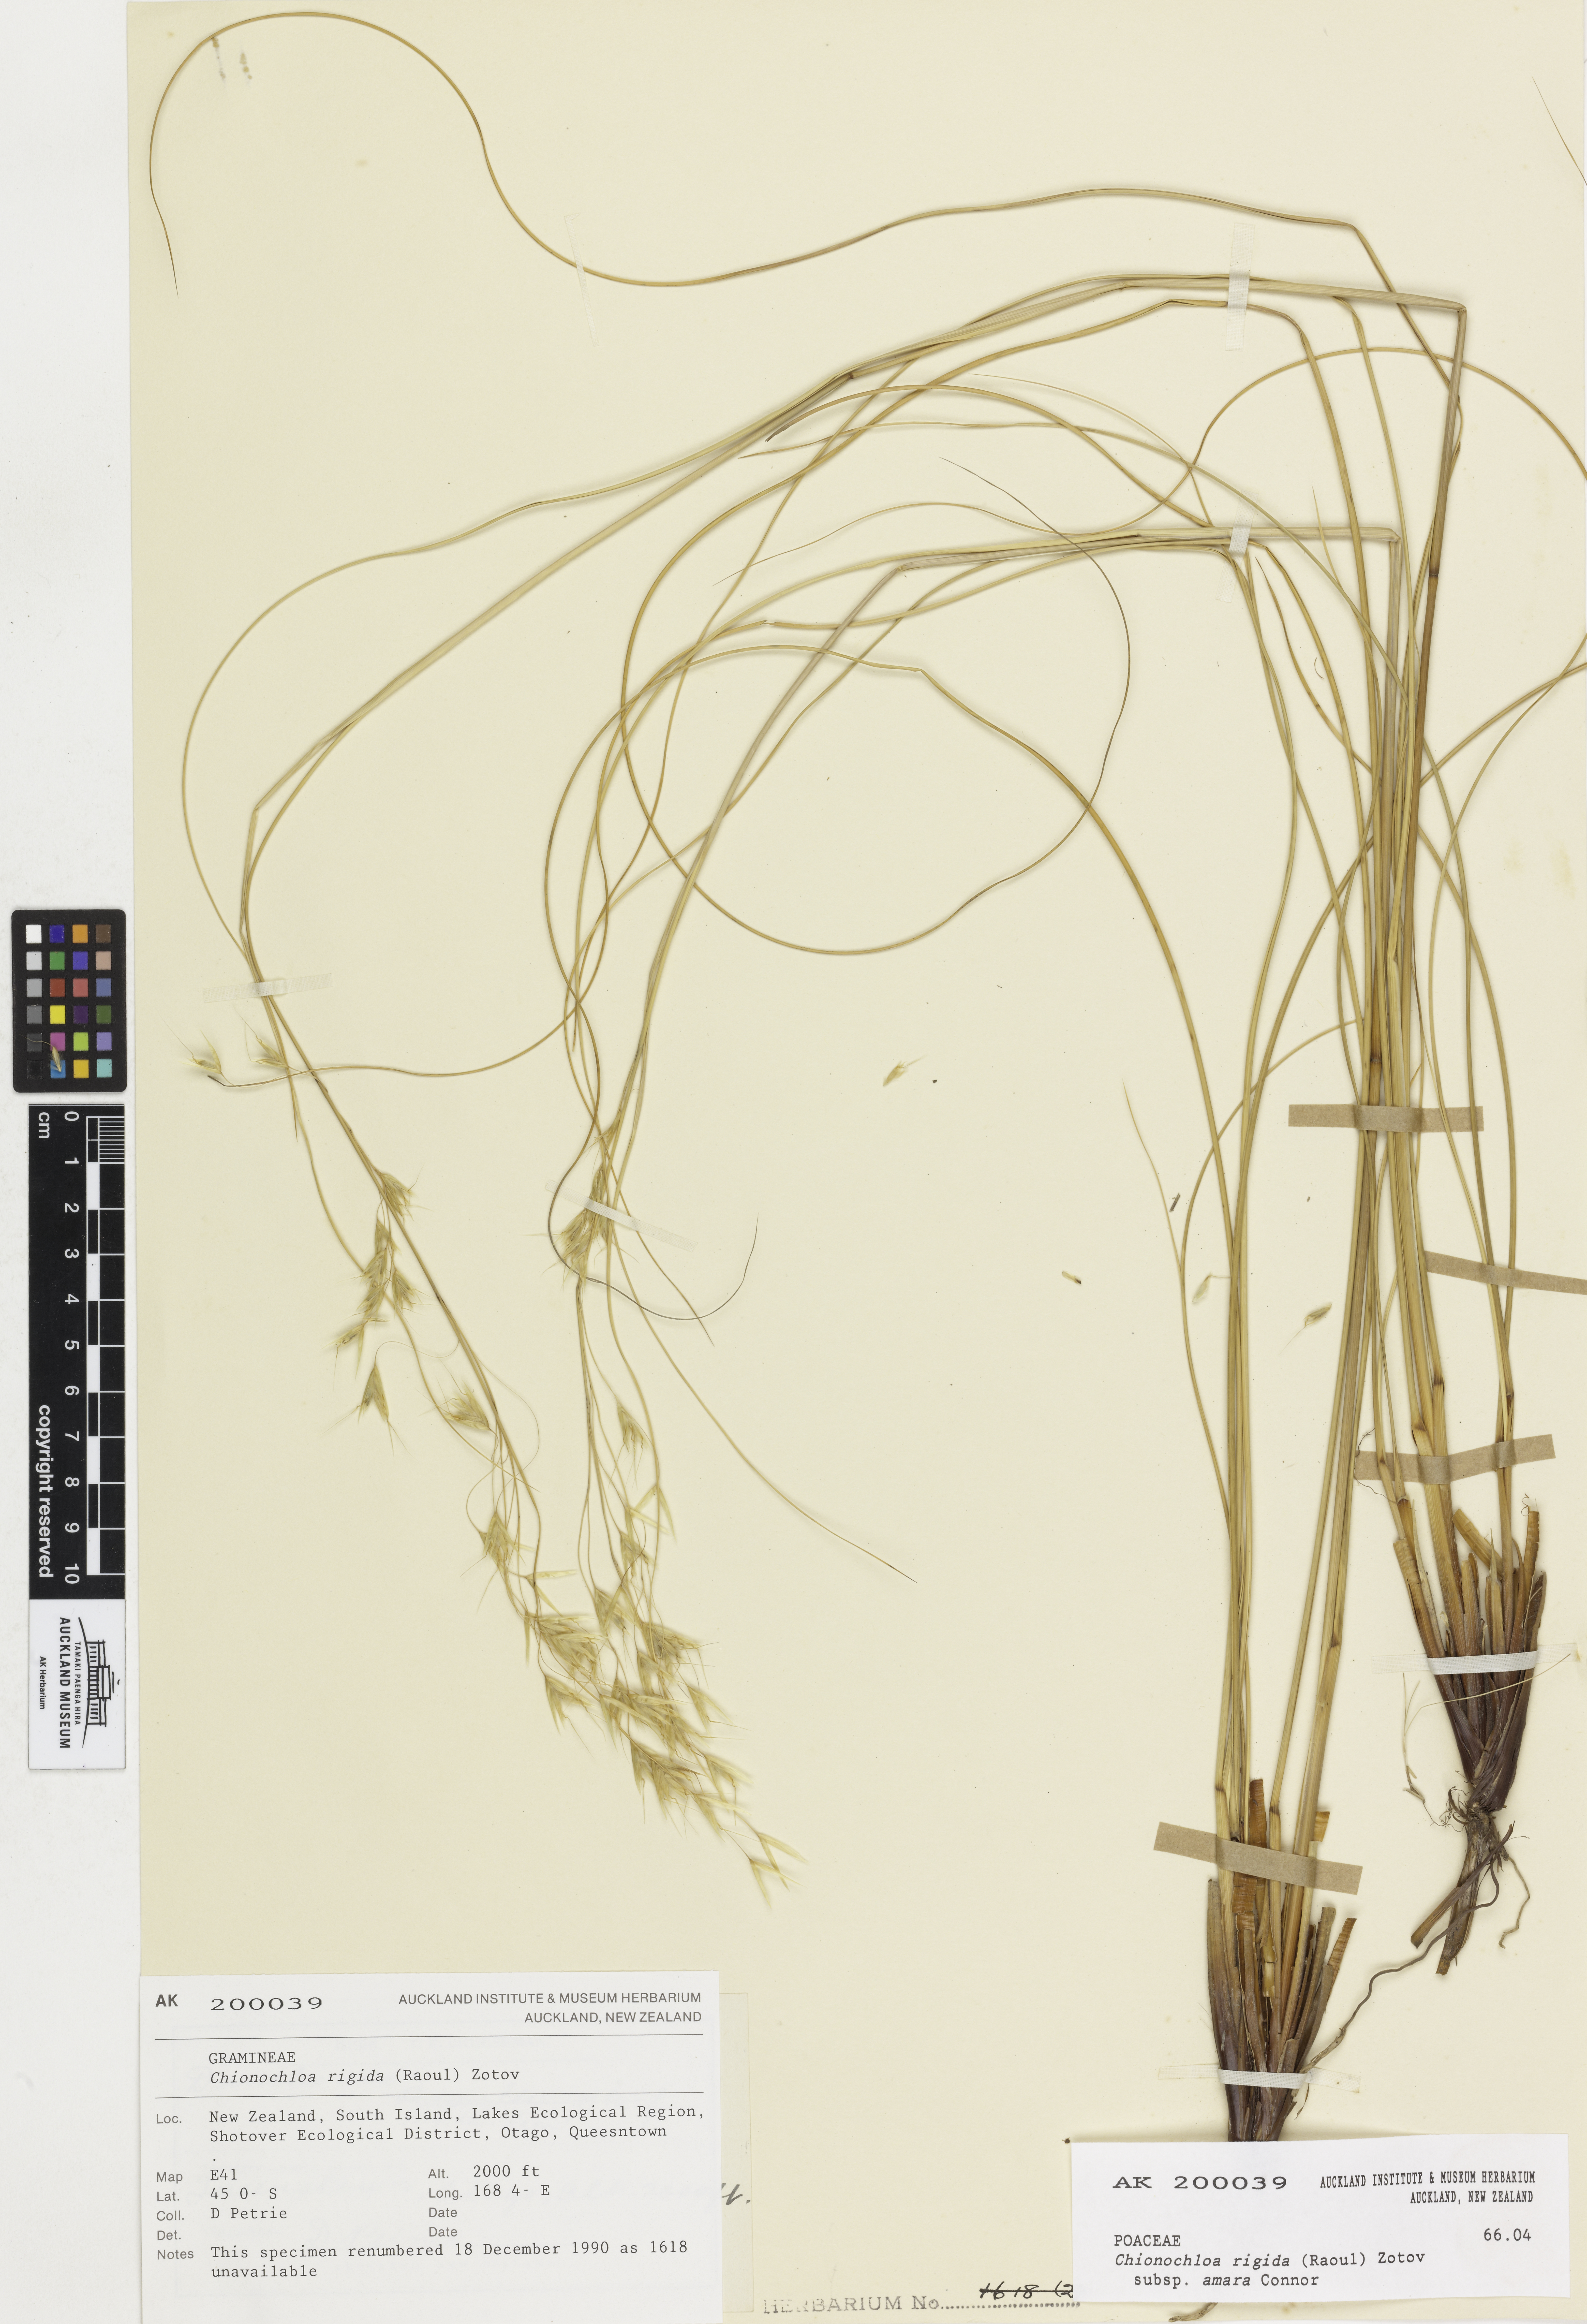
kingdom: Plantae
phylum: Tracheophyta
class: Liliopsida
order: Poales
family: Poaceae
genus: Chionochloa
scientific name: Chionochloa rigida
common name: Narrow leaved snow tussock
